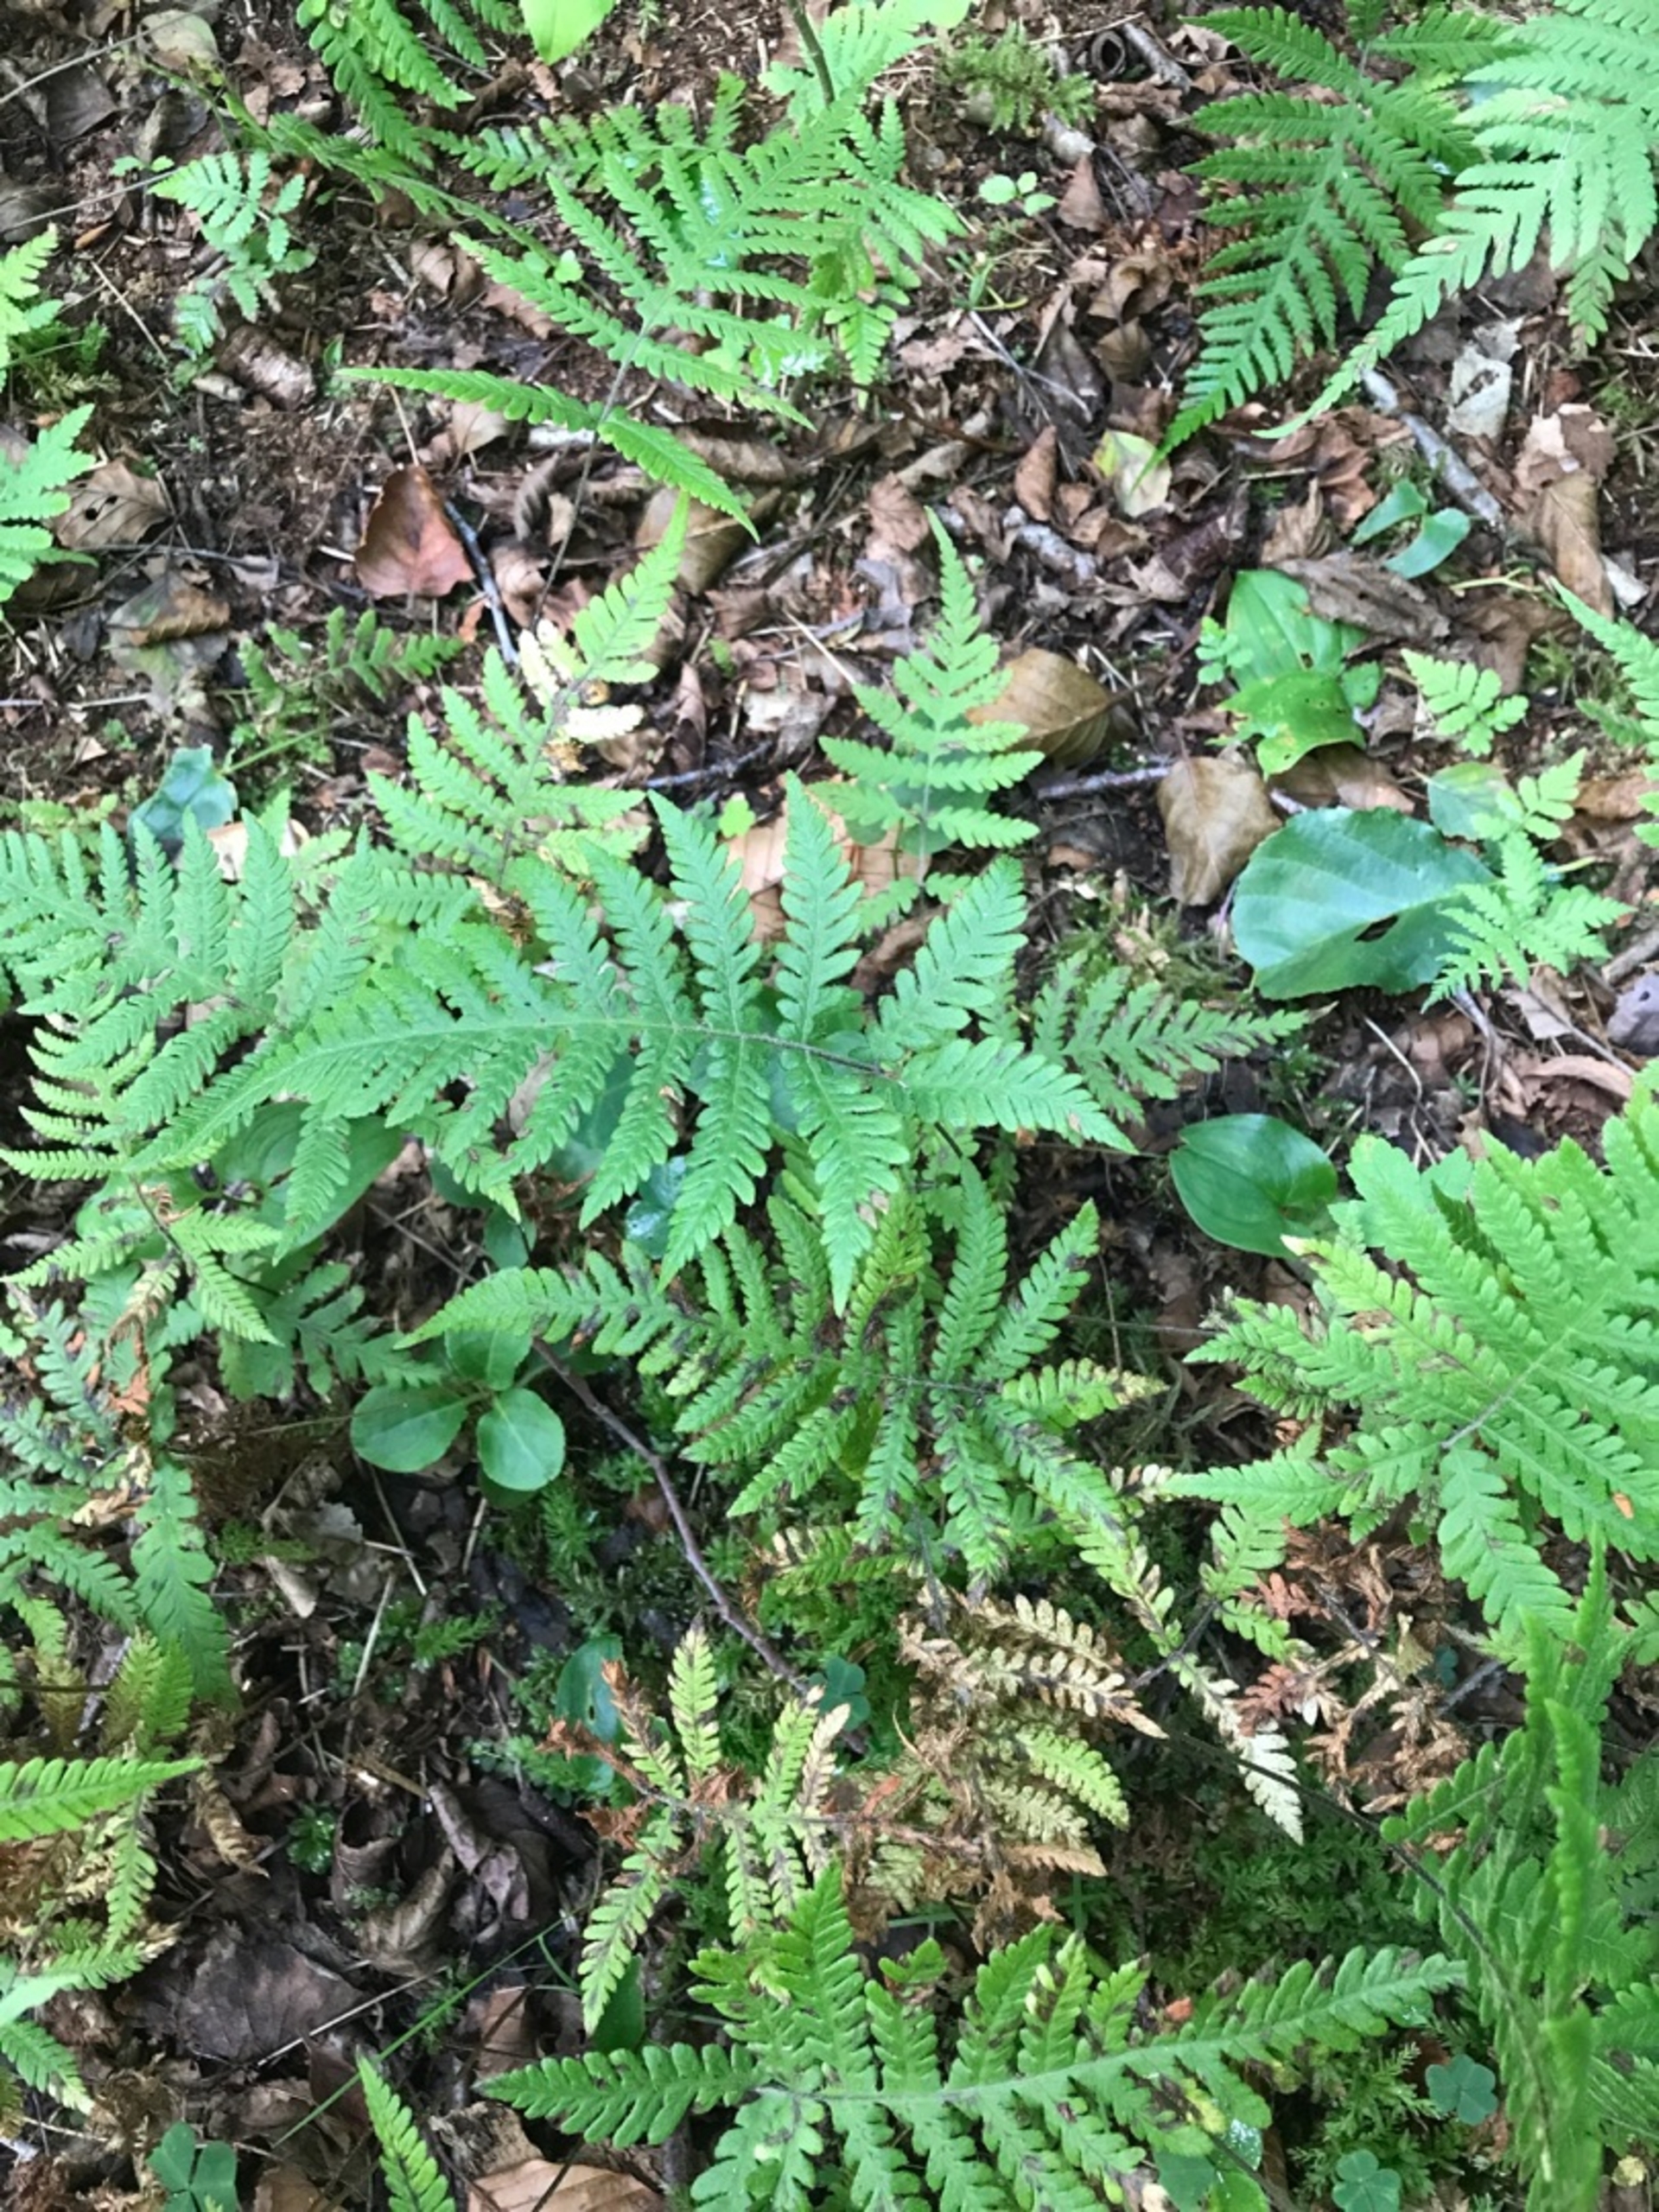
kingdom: Plantae
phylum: Tracheophyta
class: Polypodiopsida
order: Polypodiales
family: Thelypteridaceae
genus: Phegopteris
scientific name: Phegopteris connectilis
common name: Dunet egebregne
